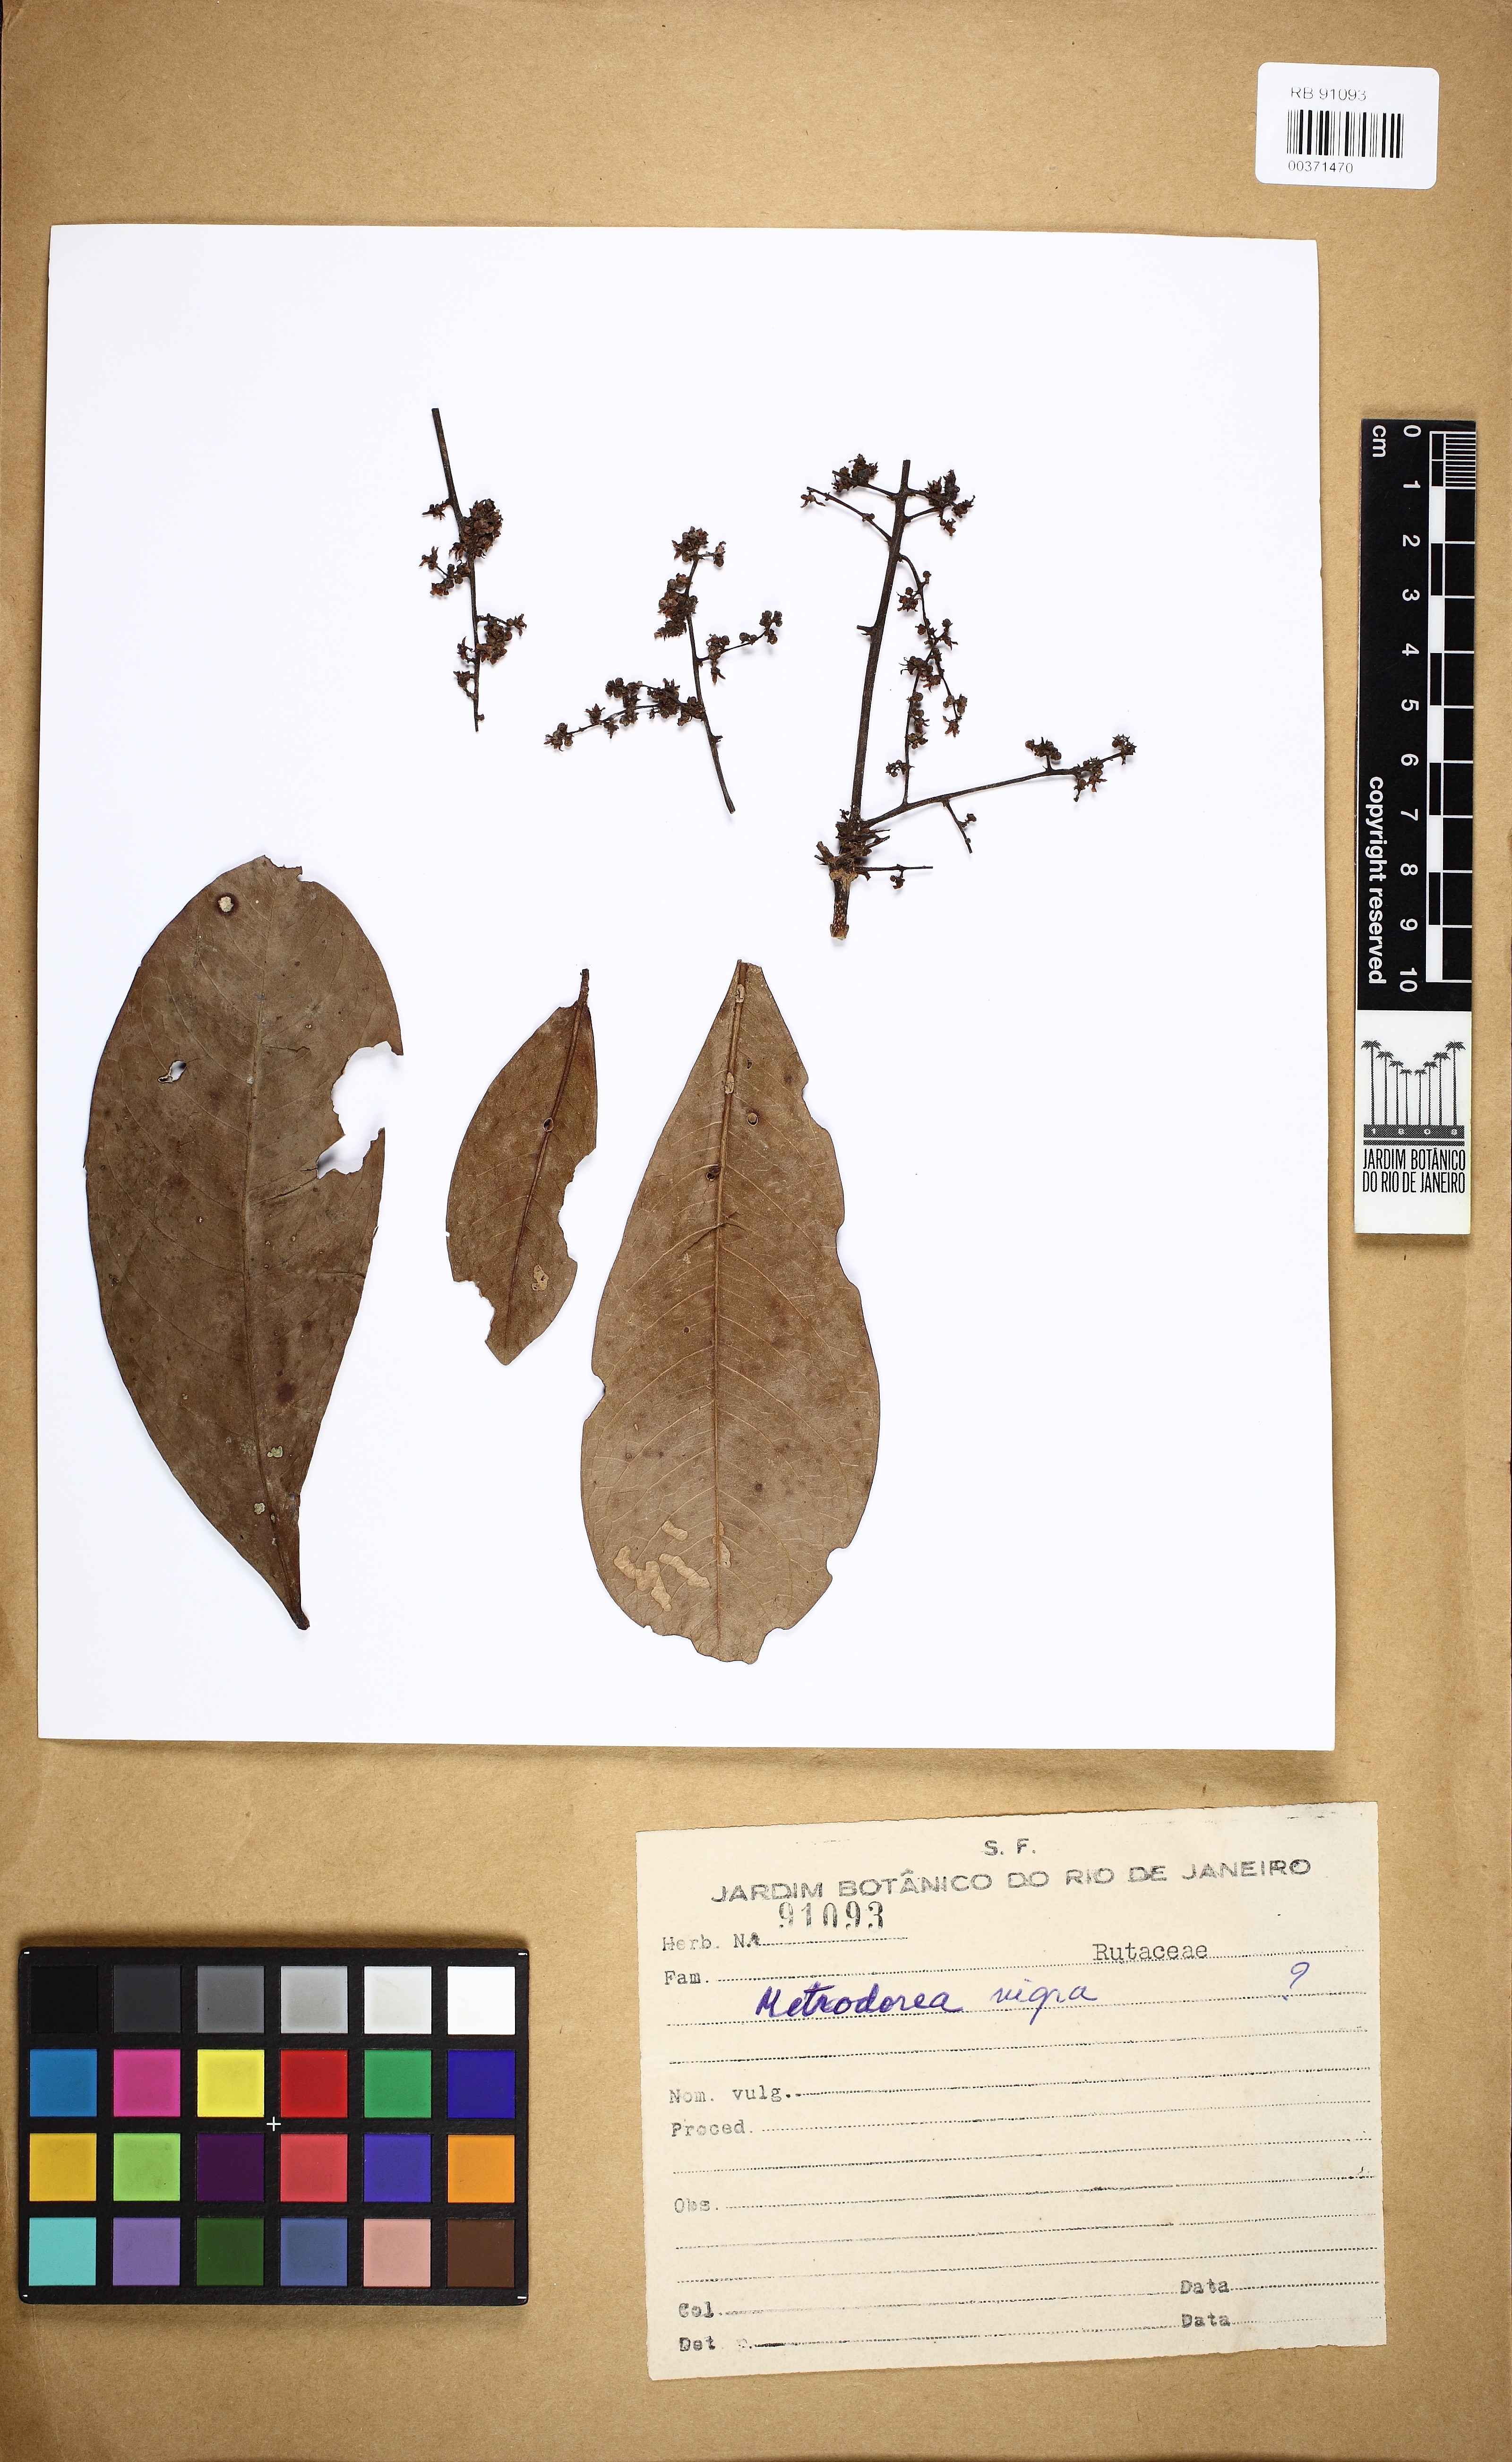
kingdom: Plantae
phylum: Tracheophyta
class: Magnoliopsida
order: Sapindales
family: Rutaceae
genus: Metrodorea
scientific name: Metrodorea nigra
